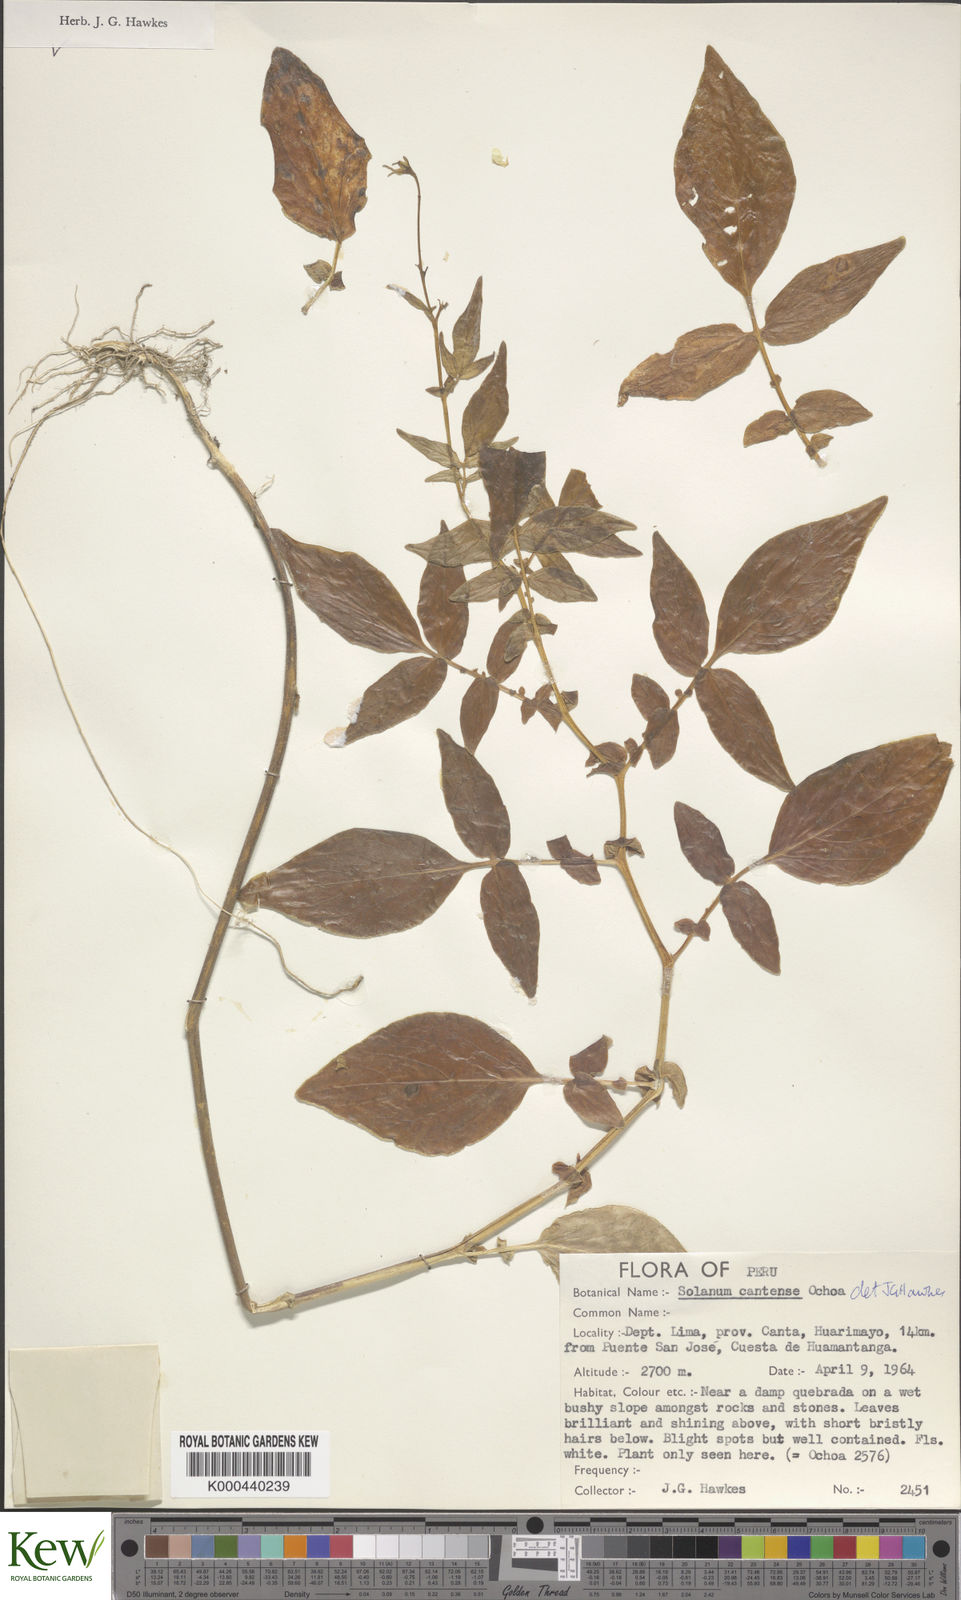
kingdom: Plantae
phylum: Tracheophyta
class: Magnoliopsida
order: Solanales
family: Solanaceae
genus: Solanum
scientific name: Solanum cantense
